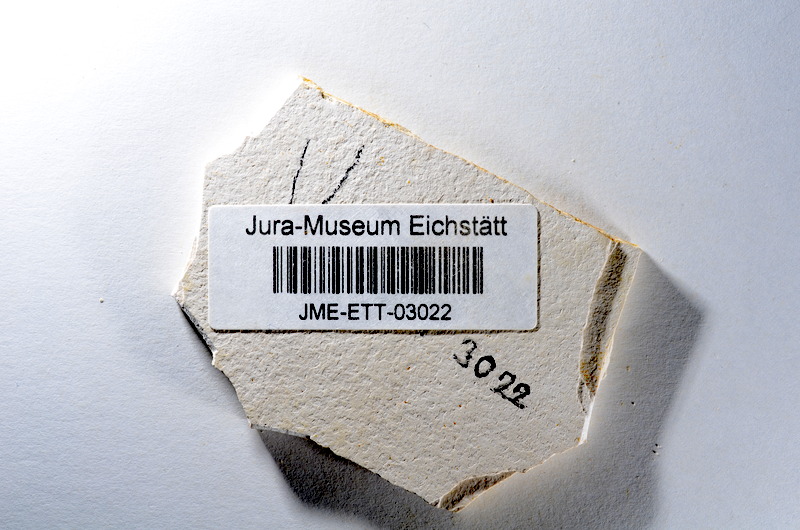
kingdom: Animalia
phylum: Chordata
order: Salmoniformes
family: Orthogonikleithridae
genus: Orthogonikleithrus
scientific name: Orthogonikleithrus hoelli
